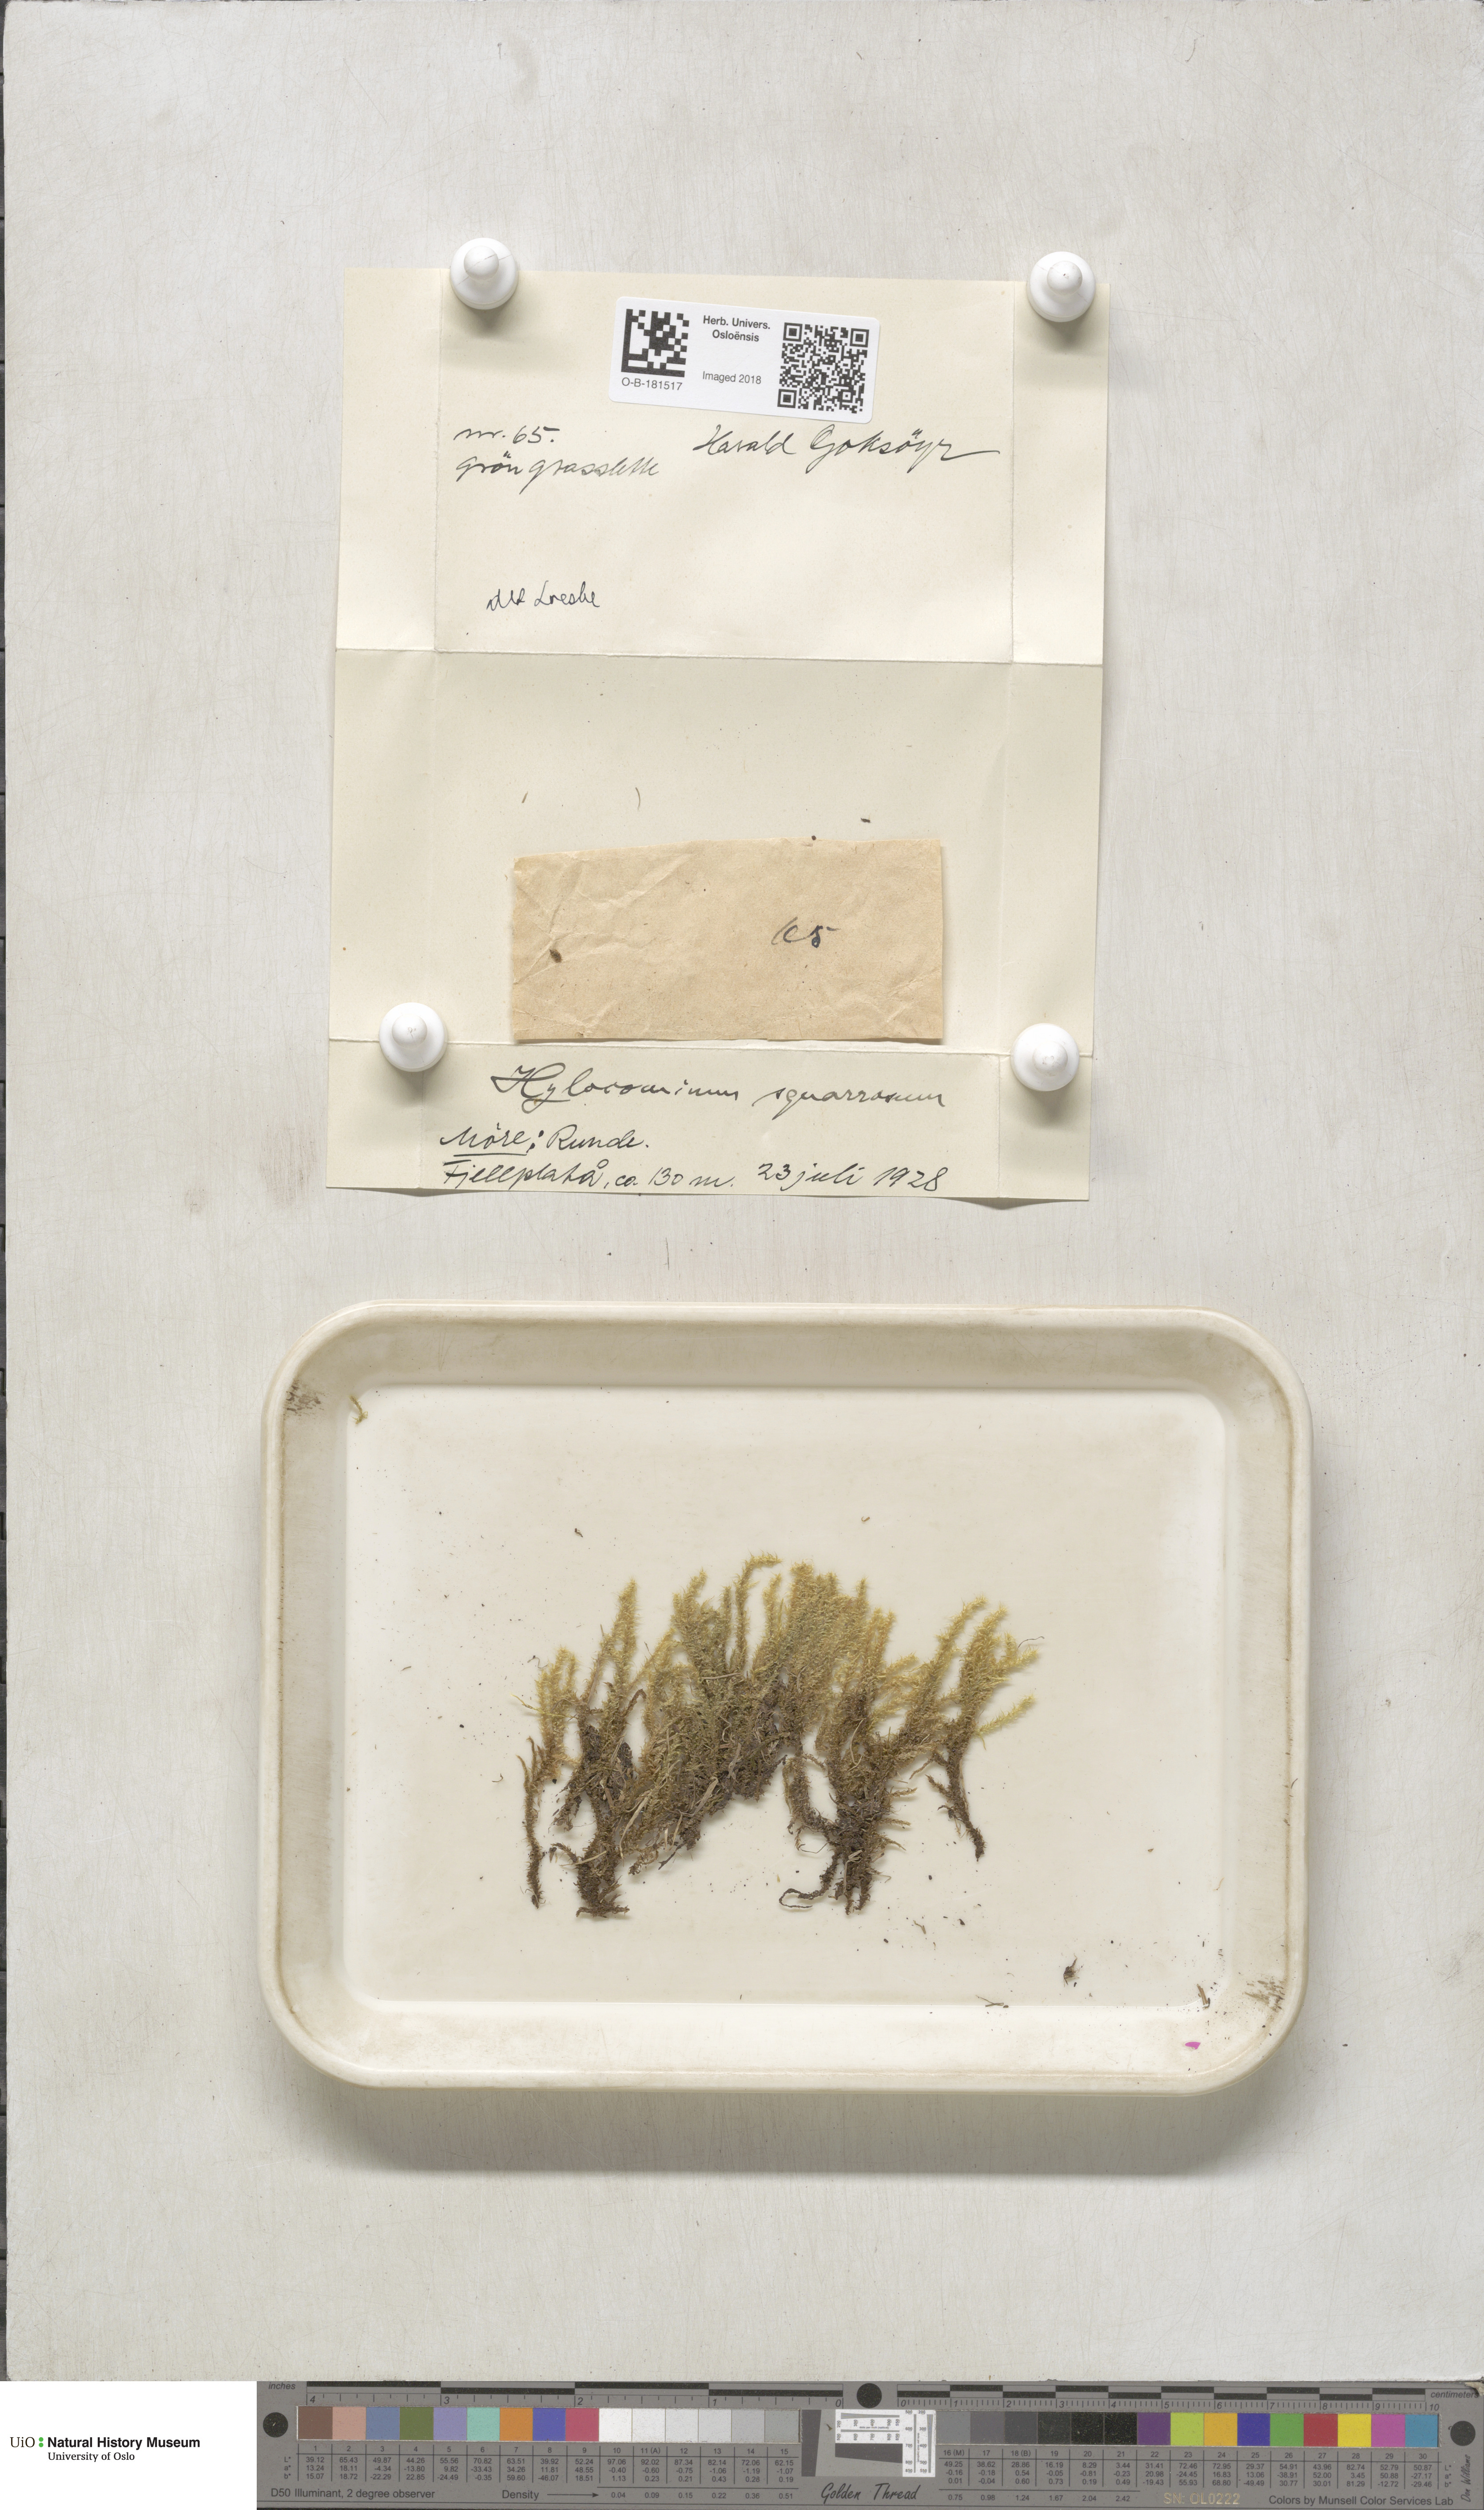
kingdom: Plantae
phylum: Bryophyta
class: Bryopsida
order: Hypnales
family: Hylocomiaceae
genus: Rhytidiadelphus
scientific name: Rhytidiadelphus squarrosus
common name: Springy turf-moss
